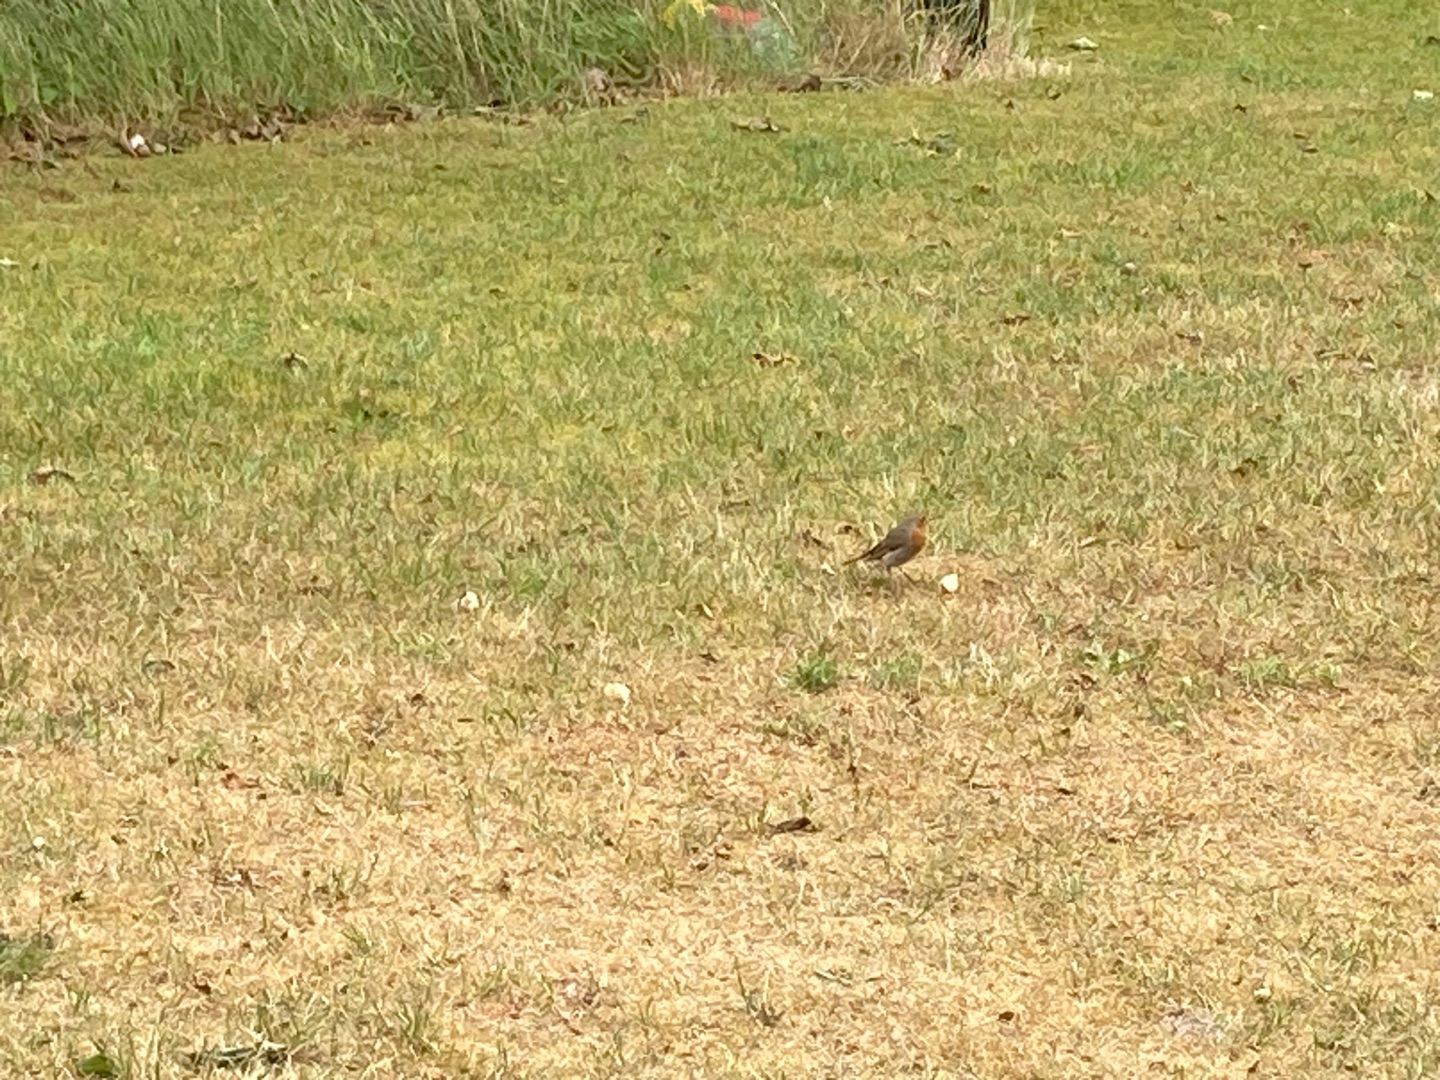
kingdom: Animalia
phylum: Chordata
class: Aves
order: Passeriformes
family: Muscicapidae
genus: Erithacus
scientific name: Erithacus rubecula
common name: Rødhals/rødkælk
